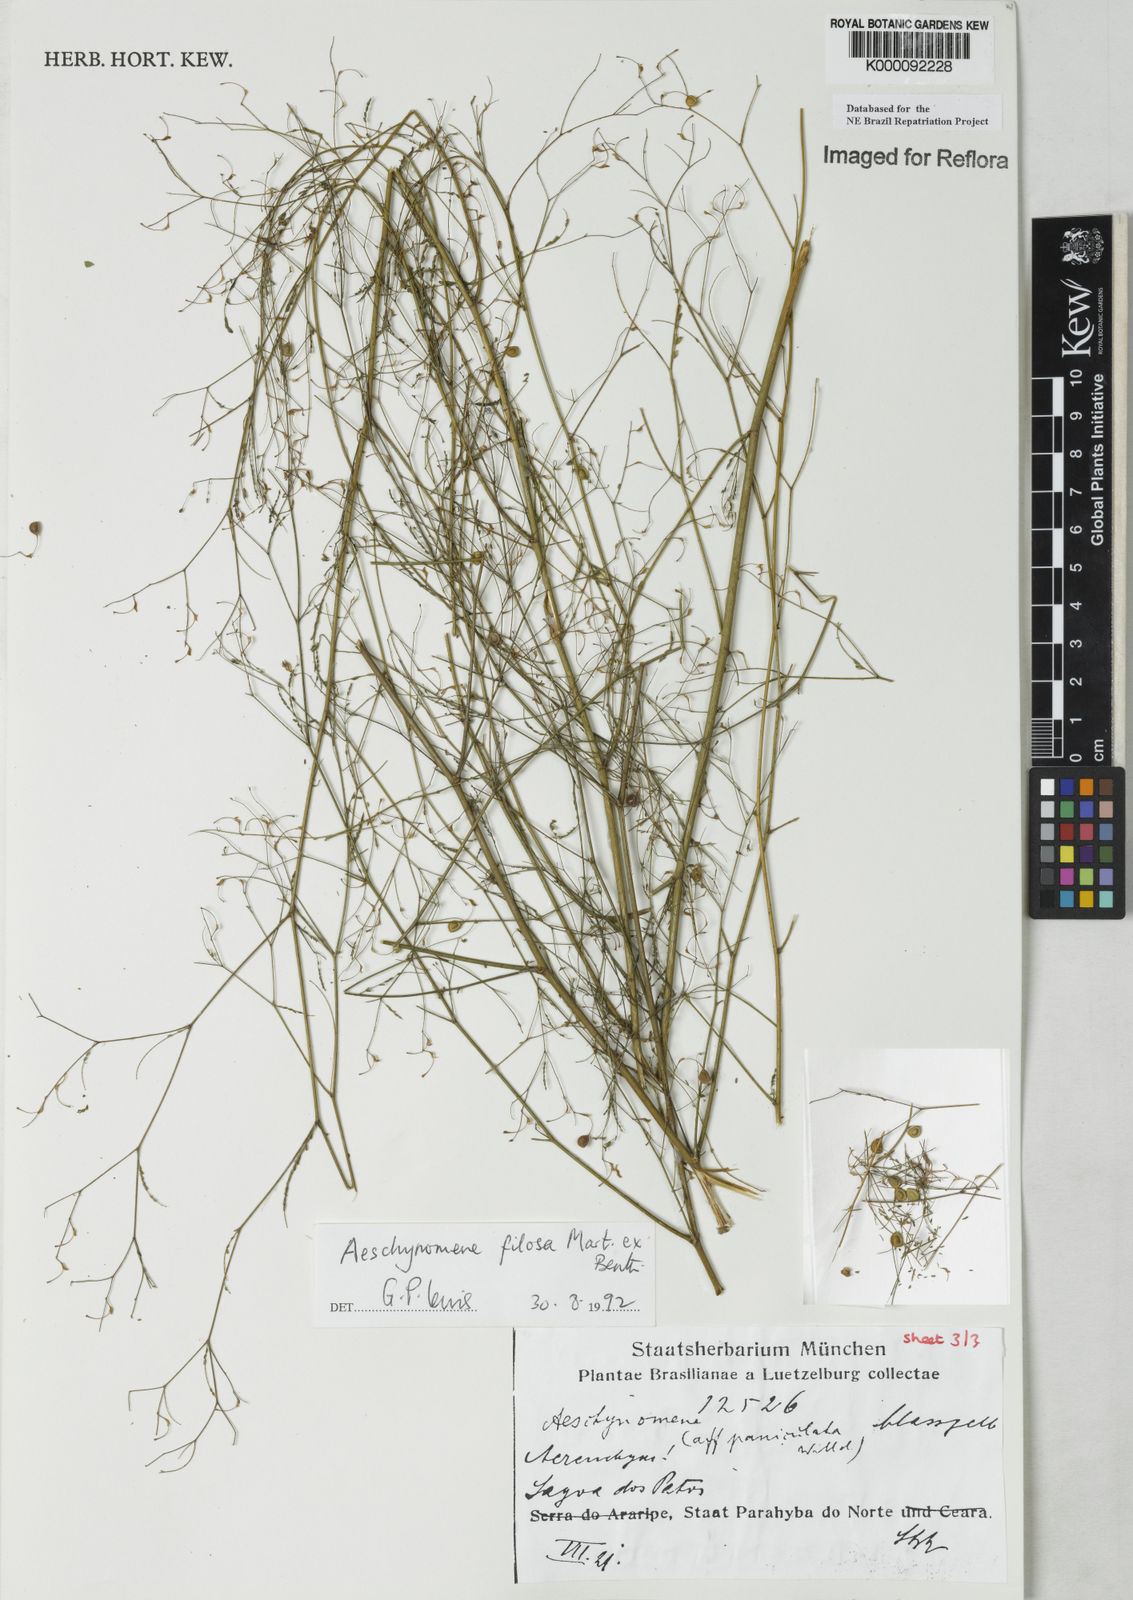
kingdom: Plantae
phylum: Tracheophyta
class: Magnoliopsida
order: Fabales
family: Fabaceae
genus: Aeschynomene
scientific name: Aeschynomene filosa
